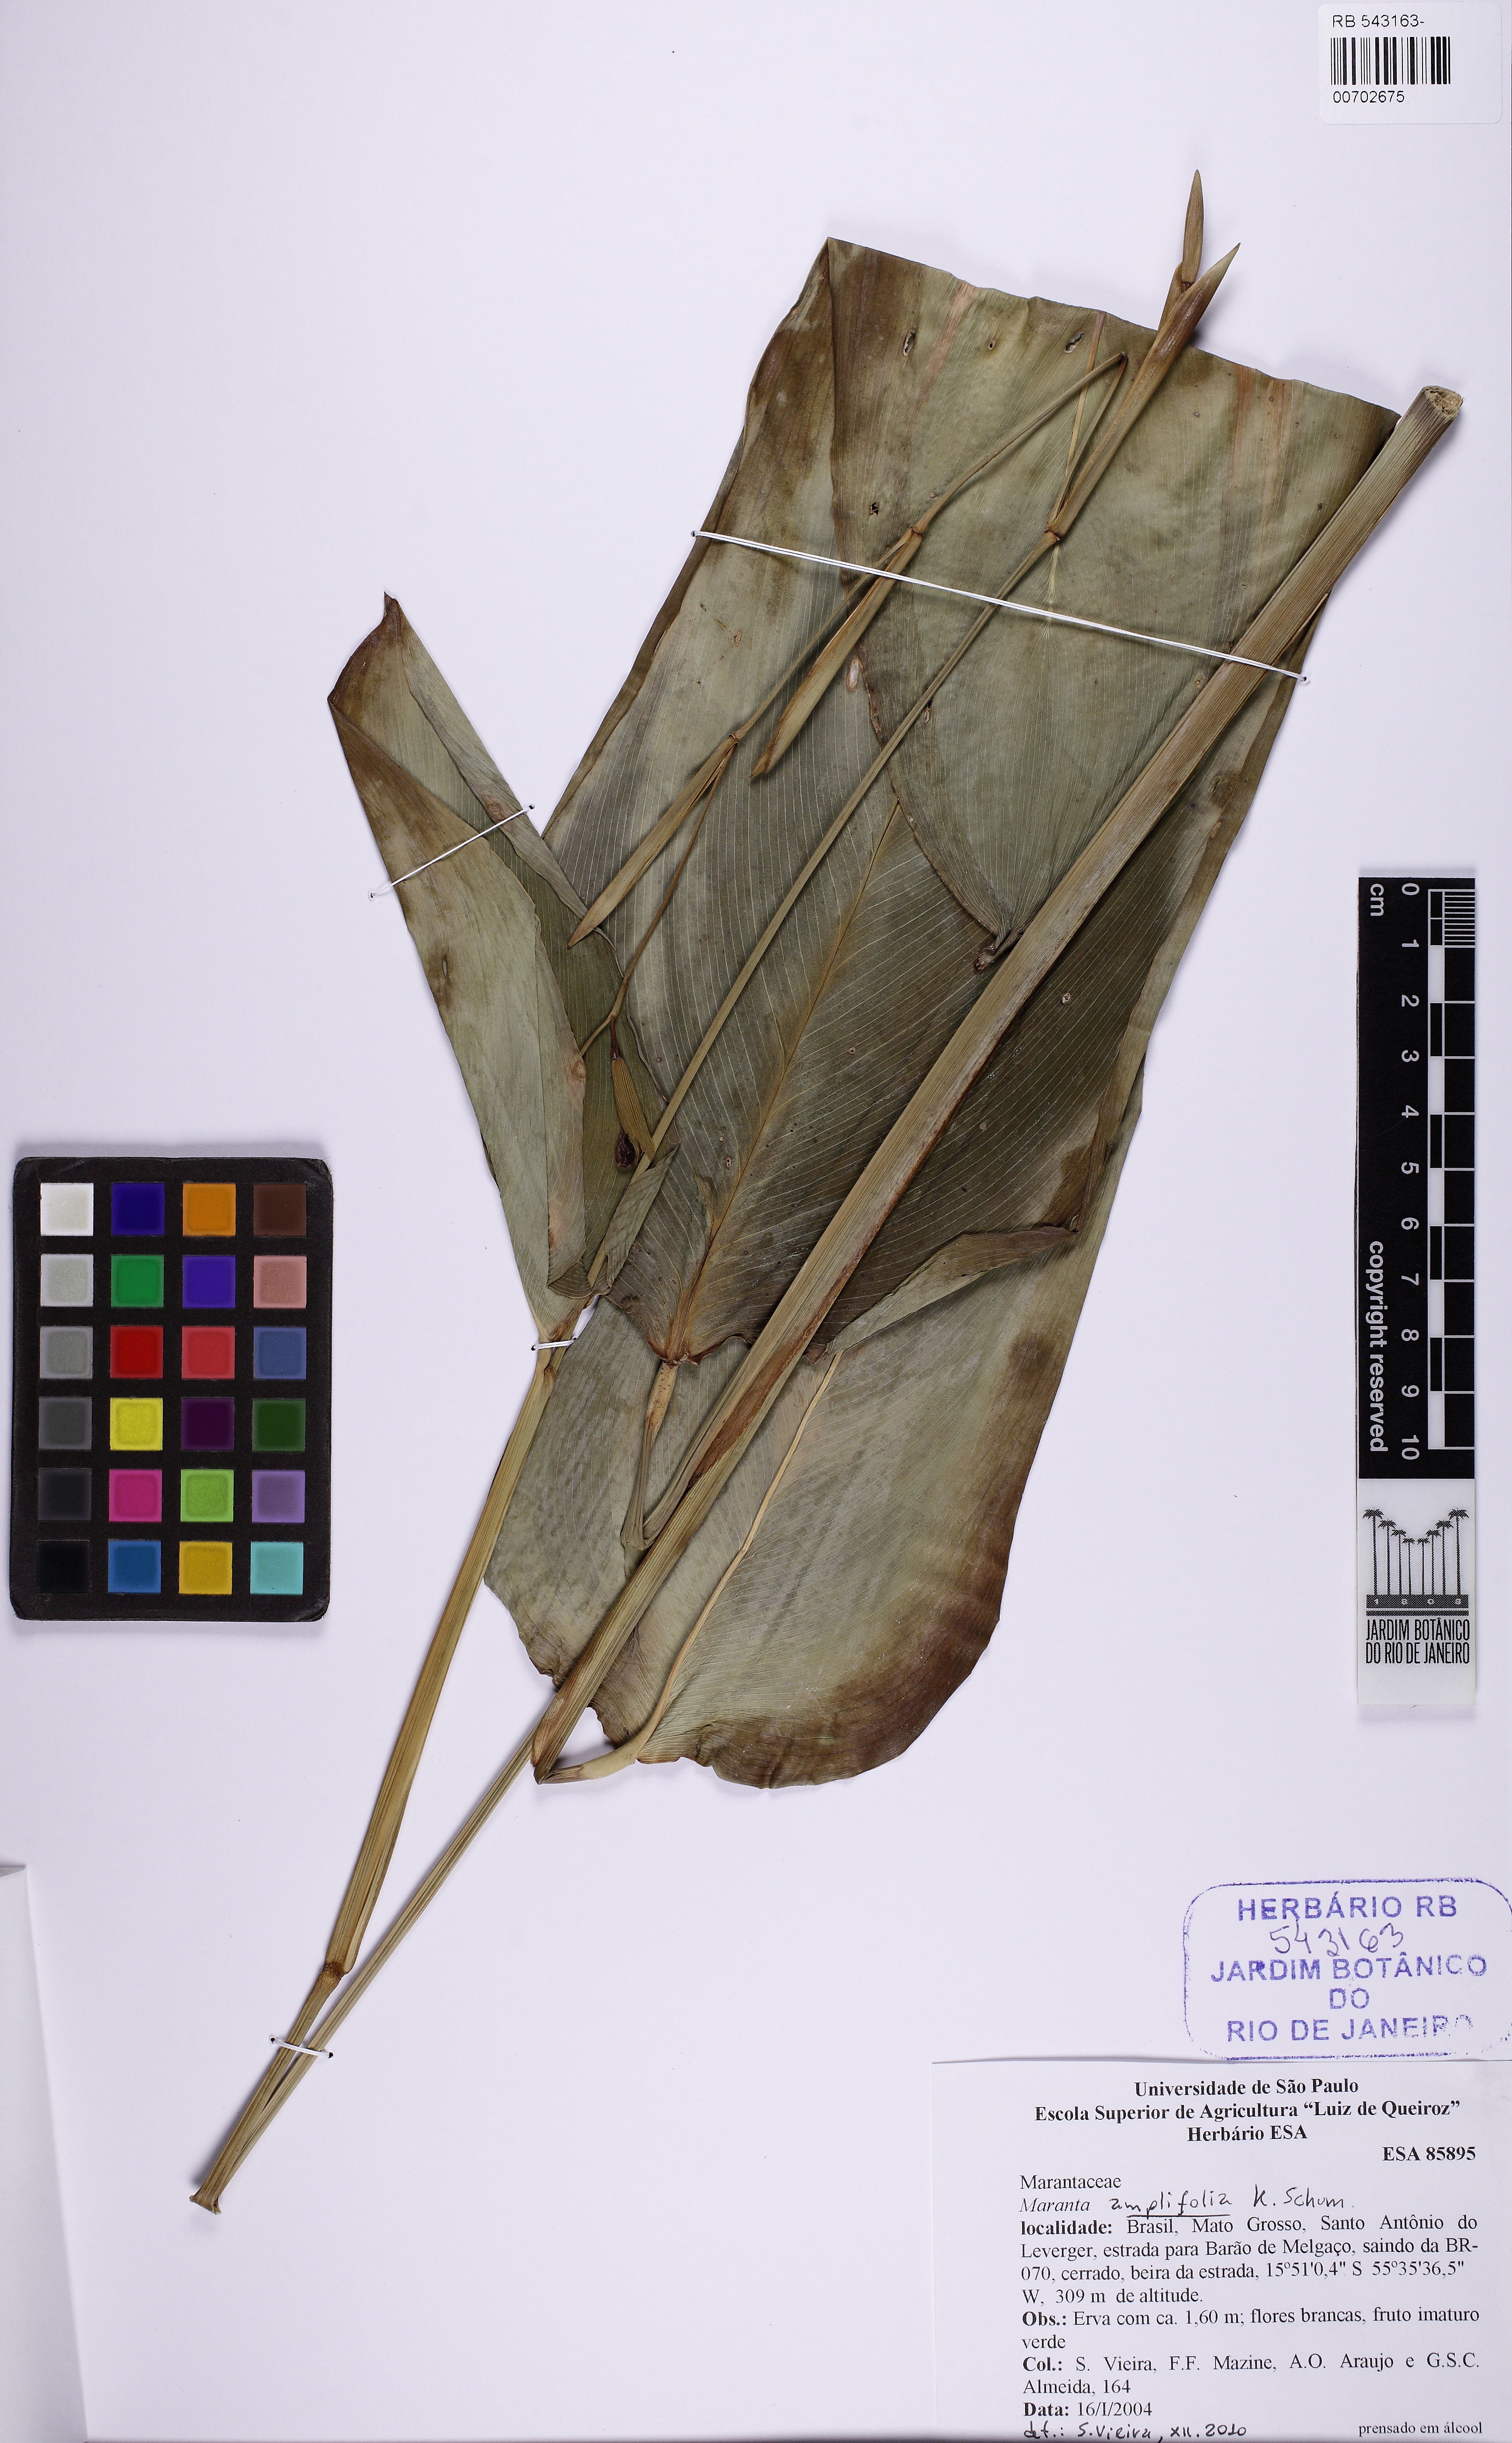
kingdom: Plantae
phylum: Tracheophyta
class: Liliopsida
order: Zingiberales
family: Marantaceae
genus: Maranta
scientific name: Maranta amplifolia
